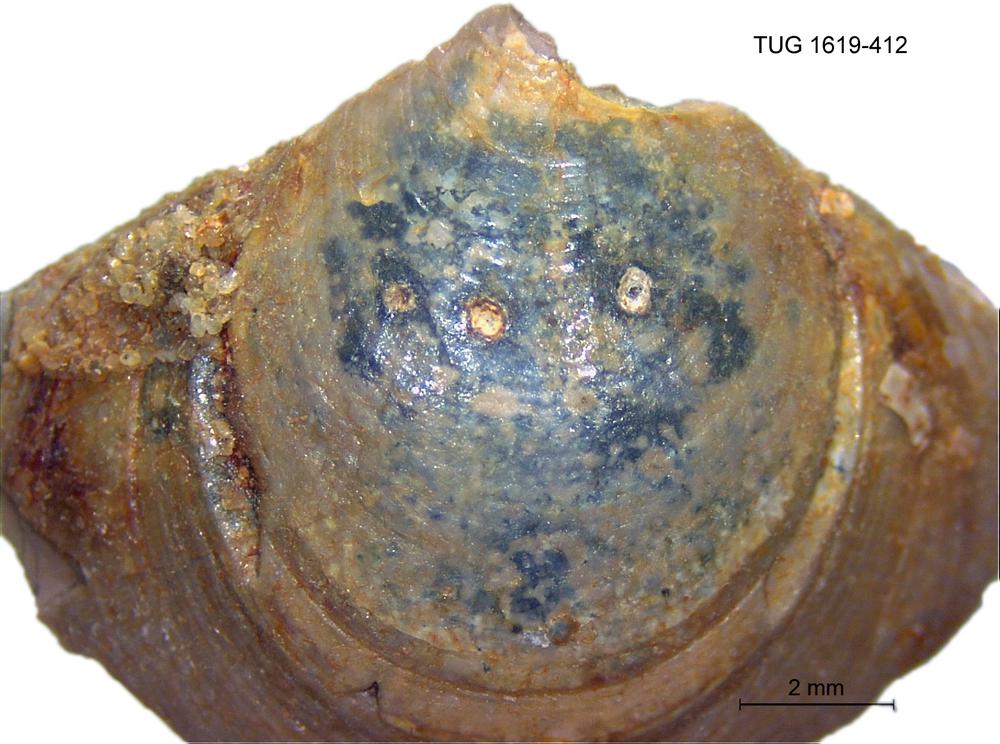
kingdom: Animalia
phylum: Porifera
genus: Ungula
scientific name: Ungula
